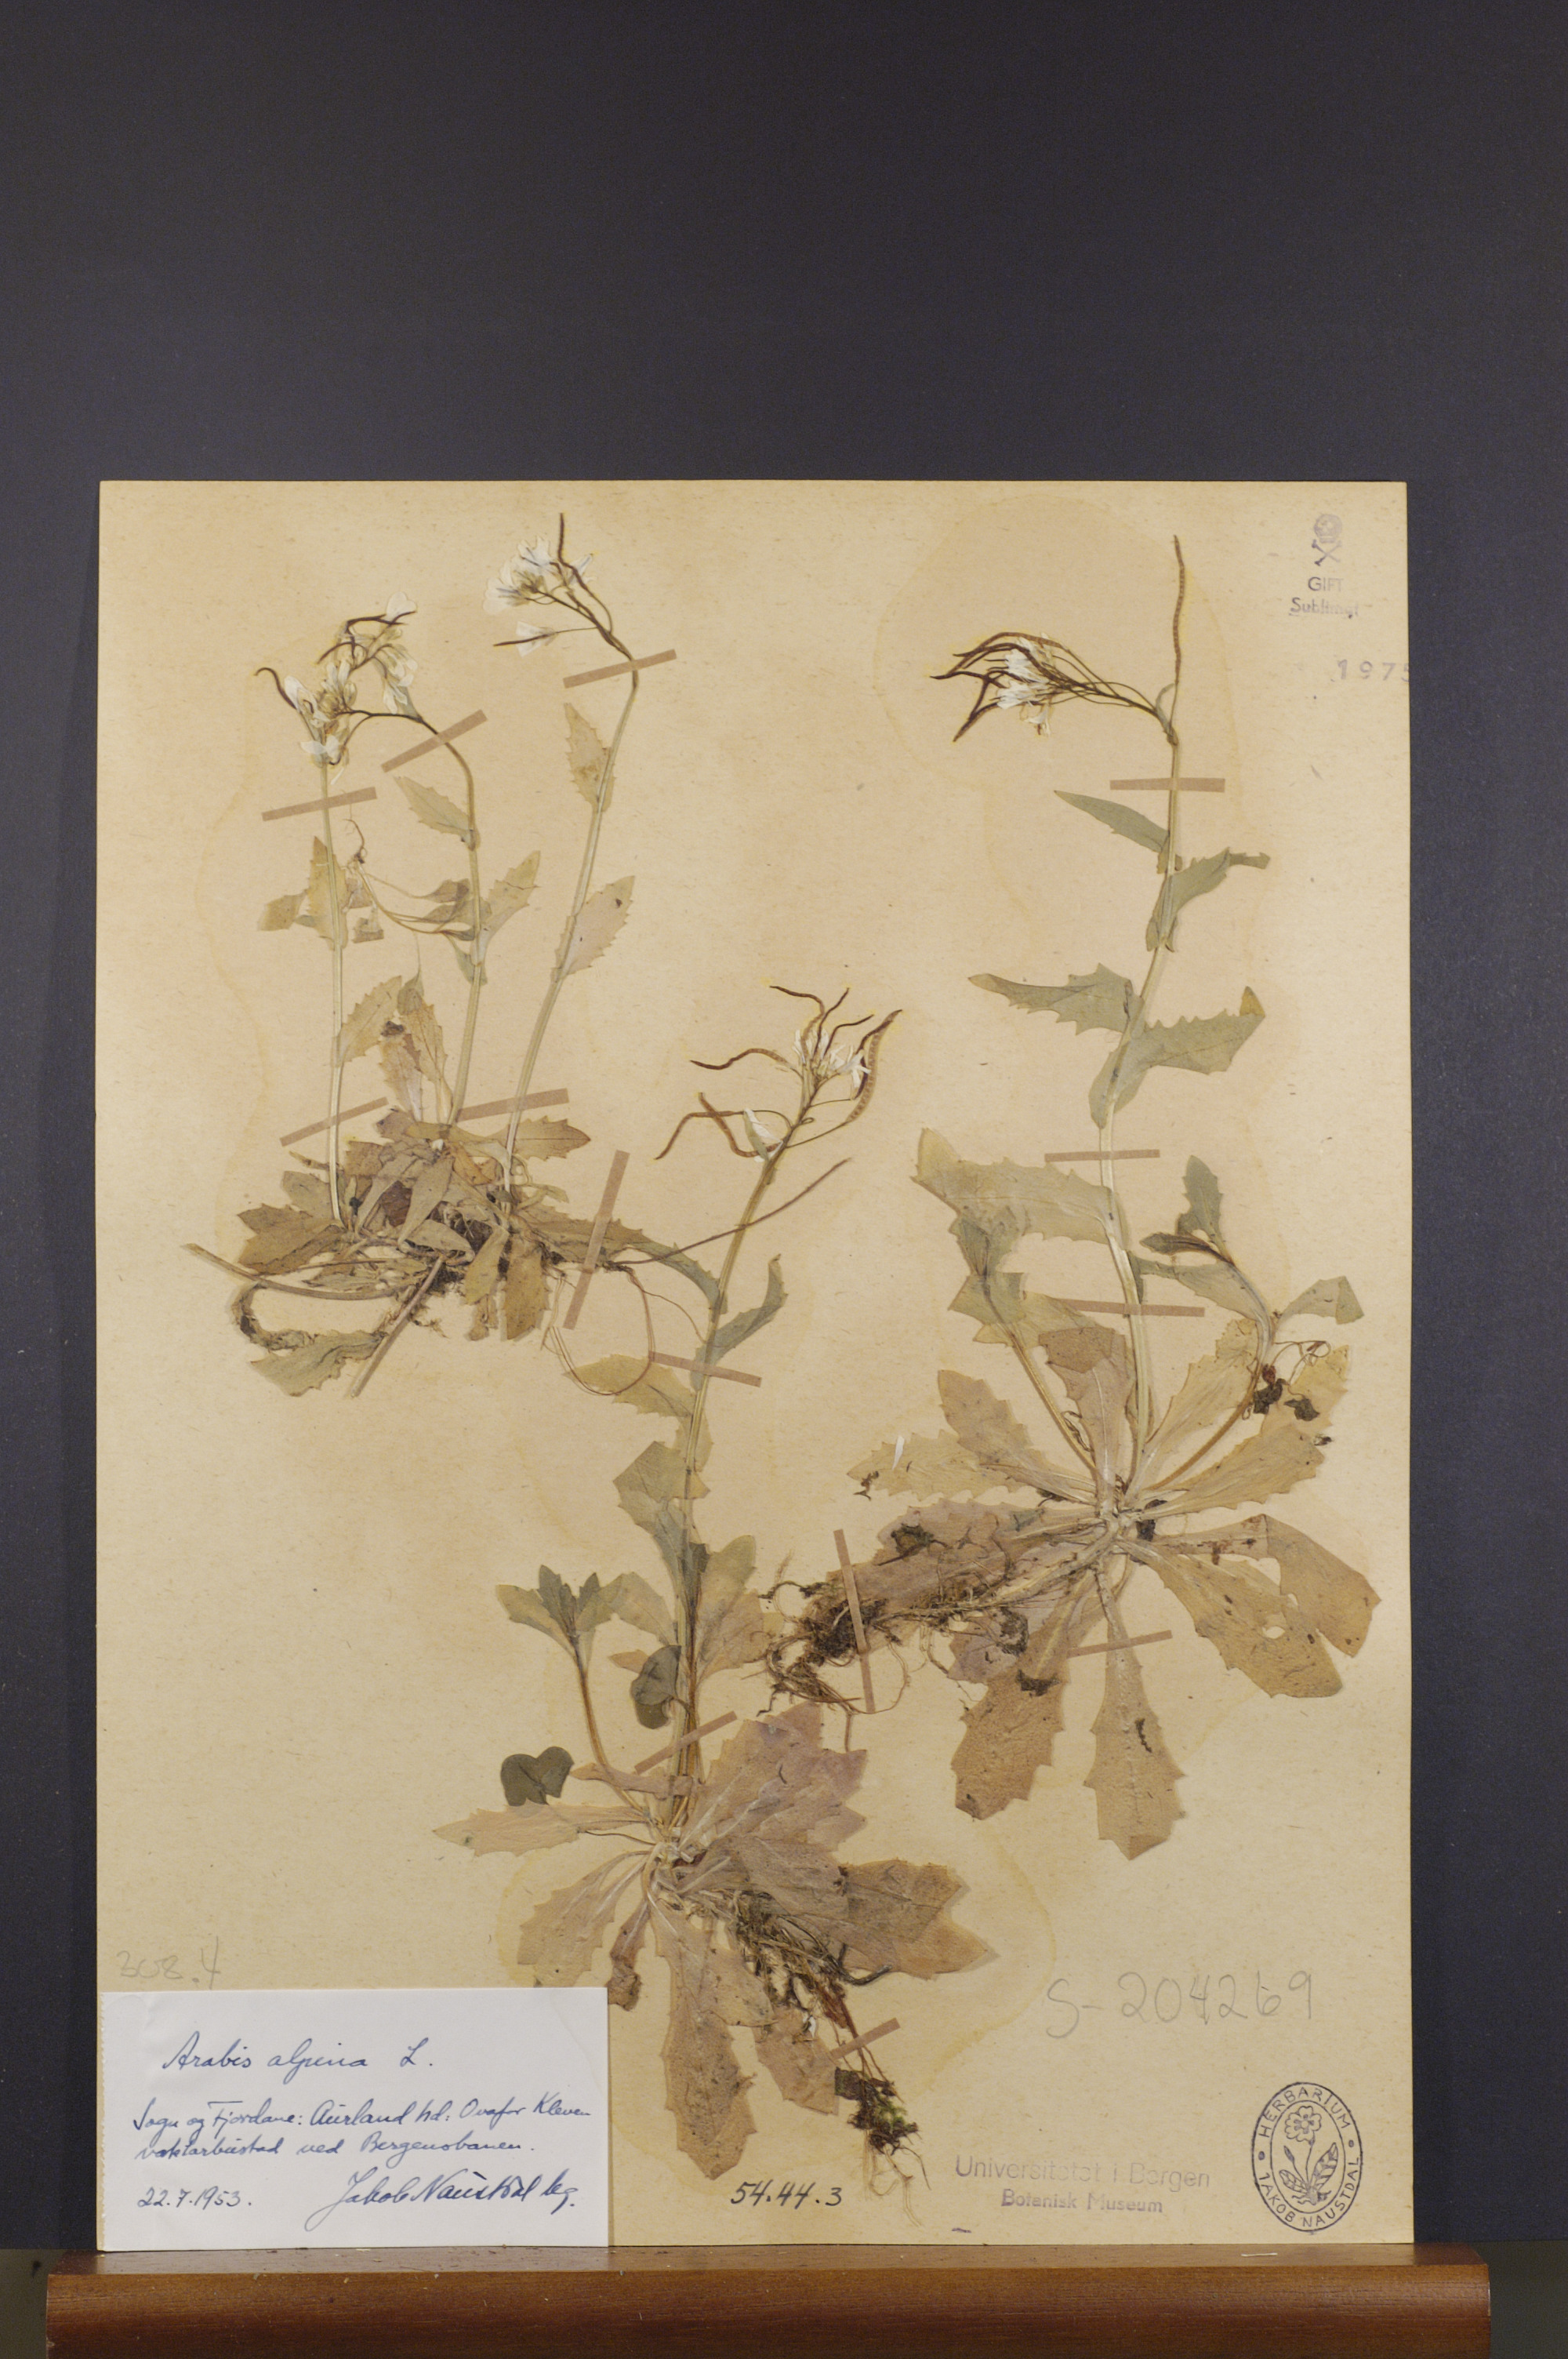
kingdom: Plantae
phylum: Tracheophyta
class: Magnoliopsida
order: Brassicales
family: Brassicaceae
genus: Arabis
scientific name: Arabis alpina
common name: Alpine rock-cress
